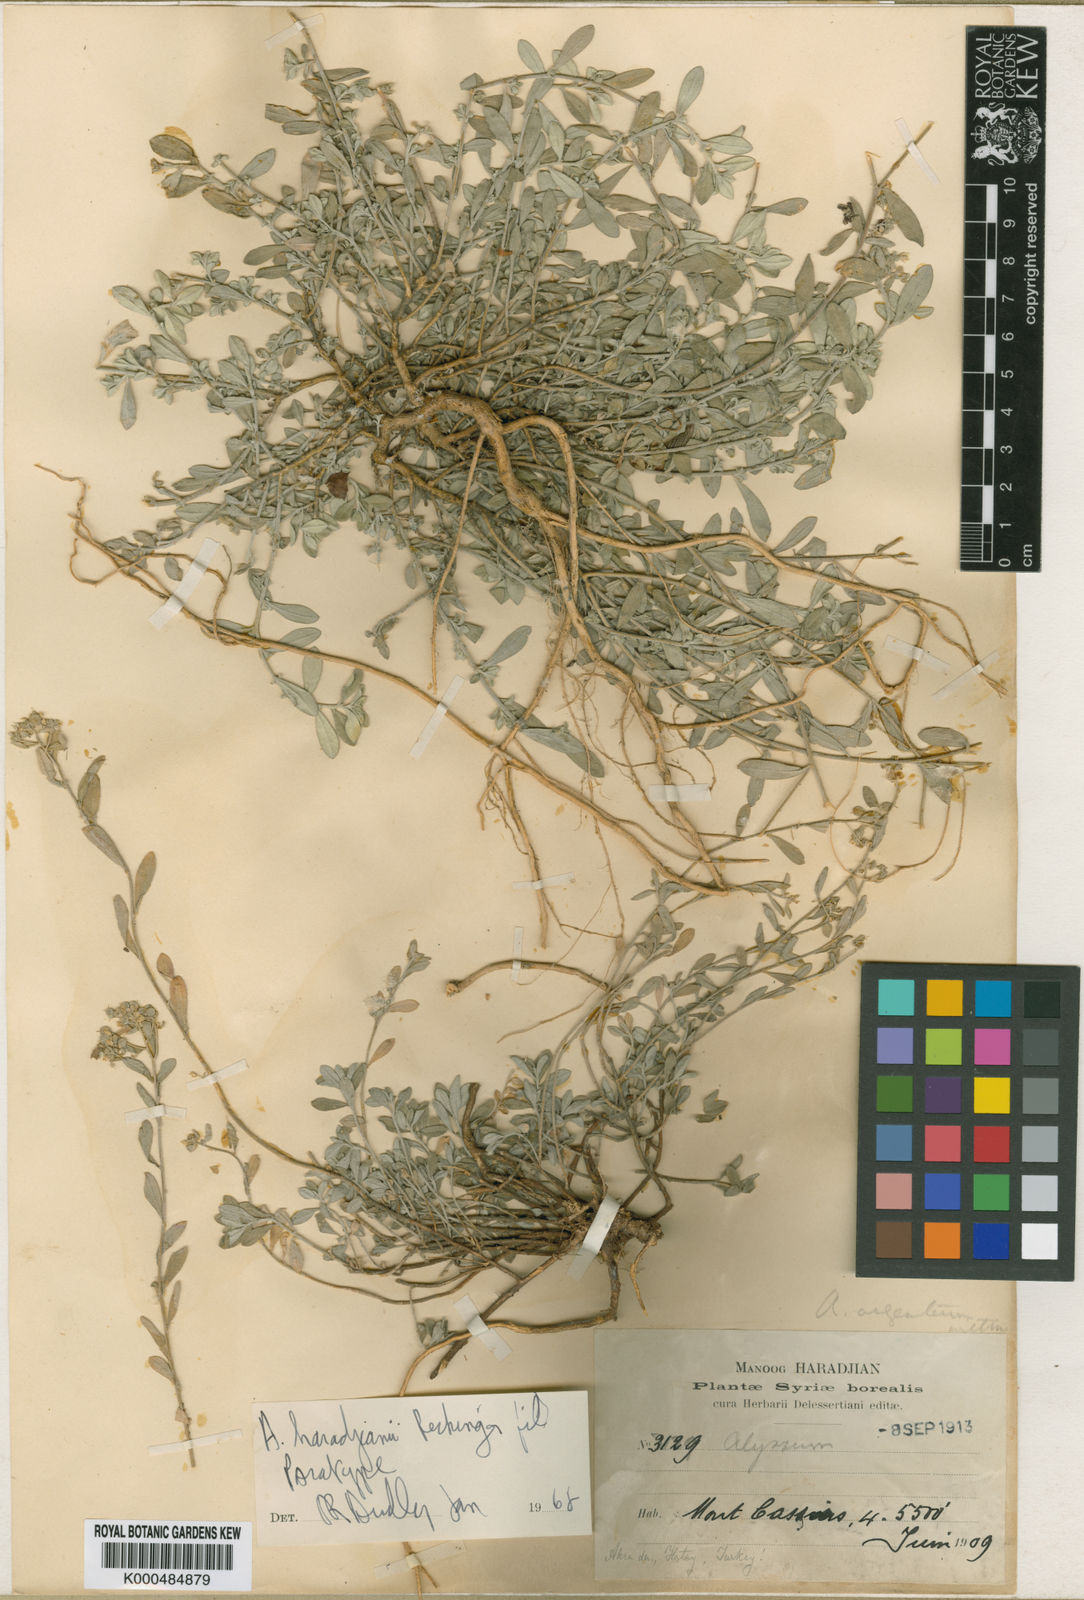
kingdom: Plantae
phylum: Tracheophyta
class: Magnoliopsida
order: Brassicales
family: Brassicaceae
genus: Odontarrhena
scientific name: Odontarrhena haradjianii
